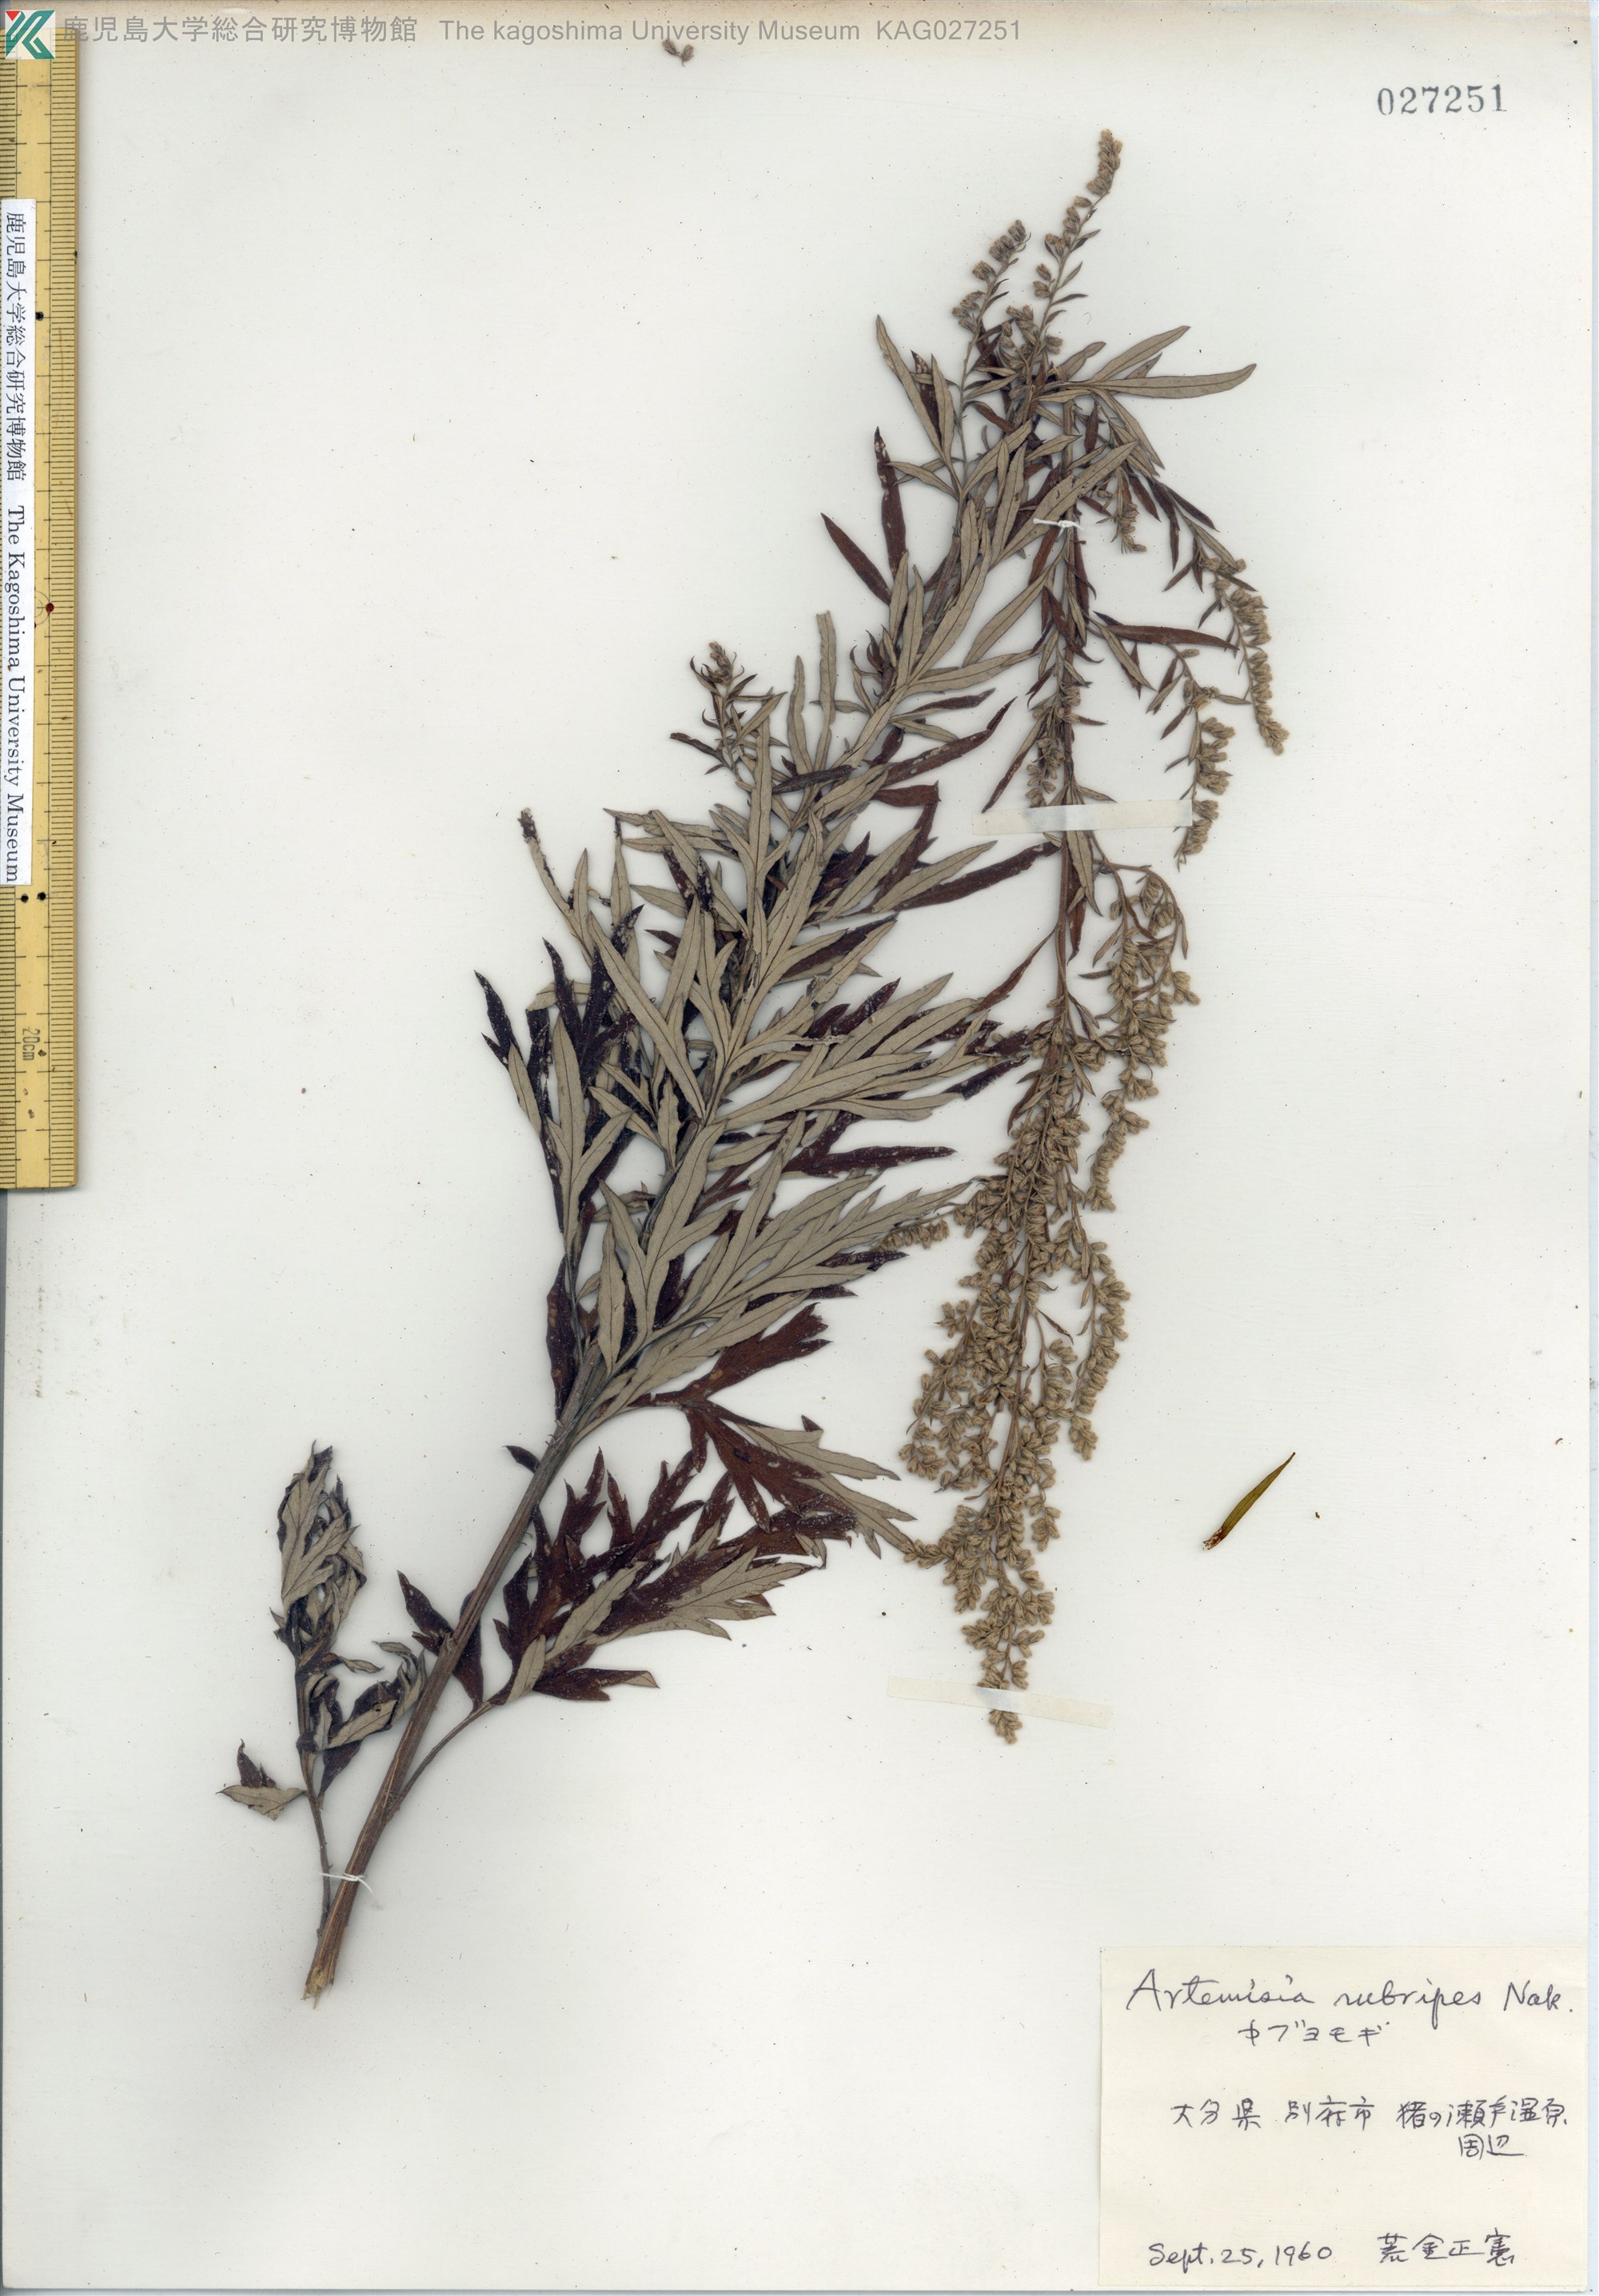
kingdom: Plantae
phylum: Tracheophyta
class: Magnoliopsida
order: Asterales
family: Asteraceae
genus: Artemisia
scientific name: Artemisia rubripes
